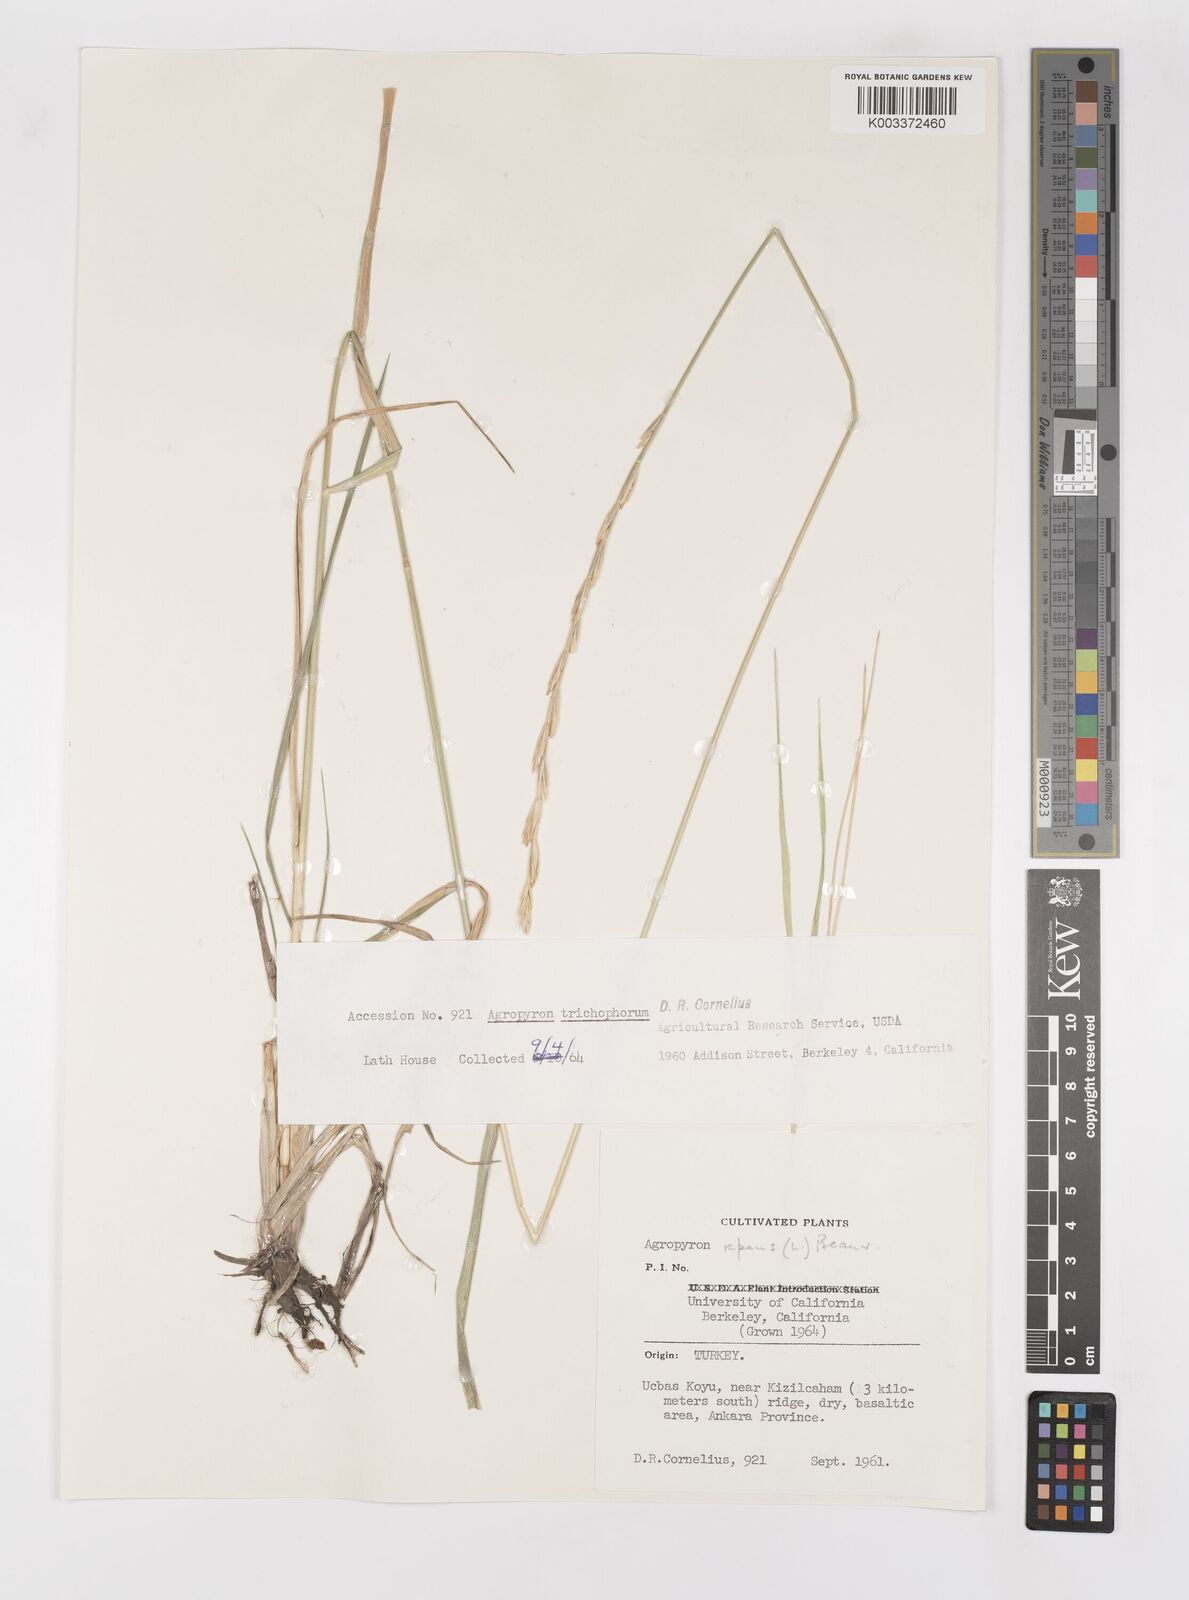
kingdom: Plantae
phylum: Tracheophyta
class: Liliopsida
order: Poales
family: Poaceae
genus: Elymus
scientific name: Elymus repens
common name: Quackgrass
